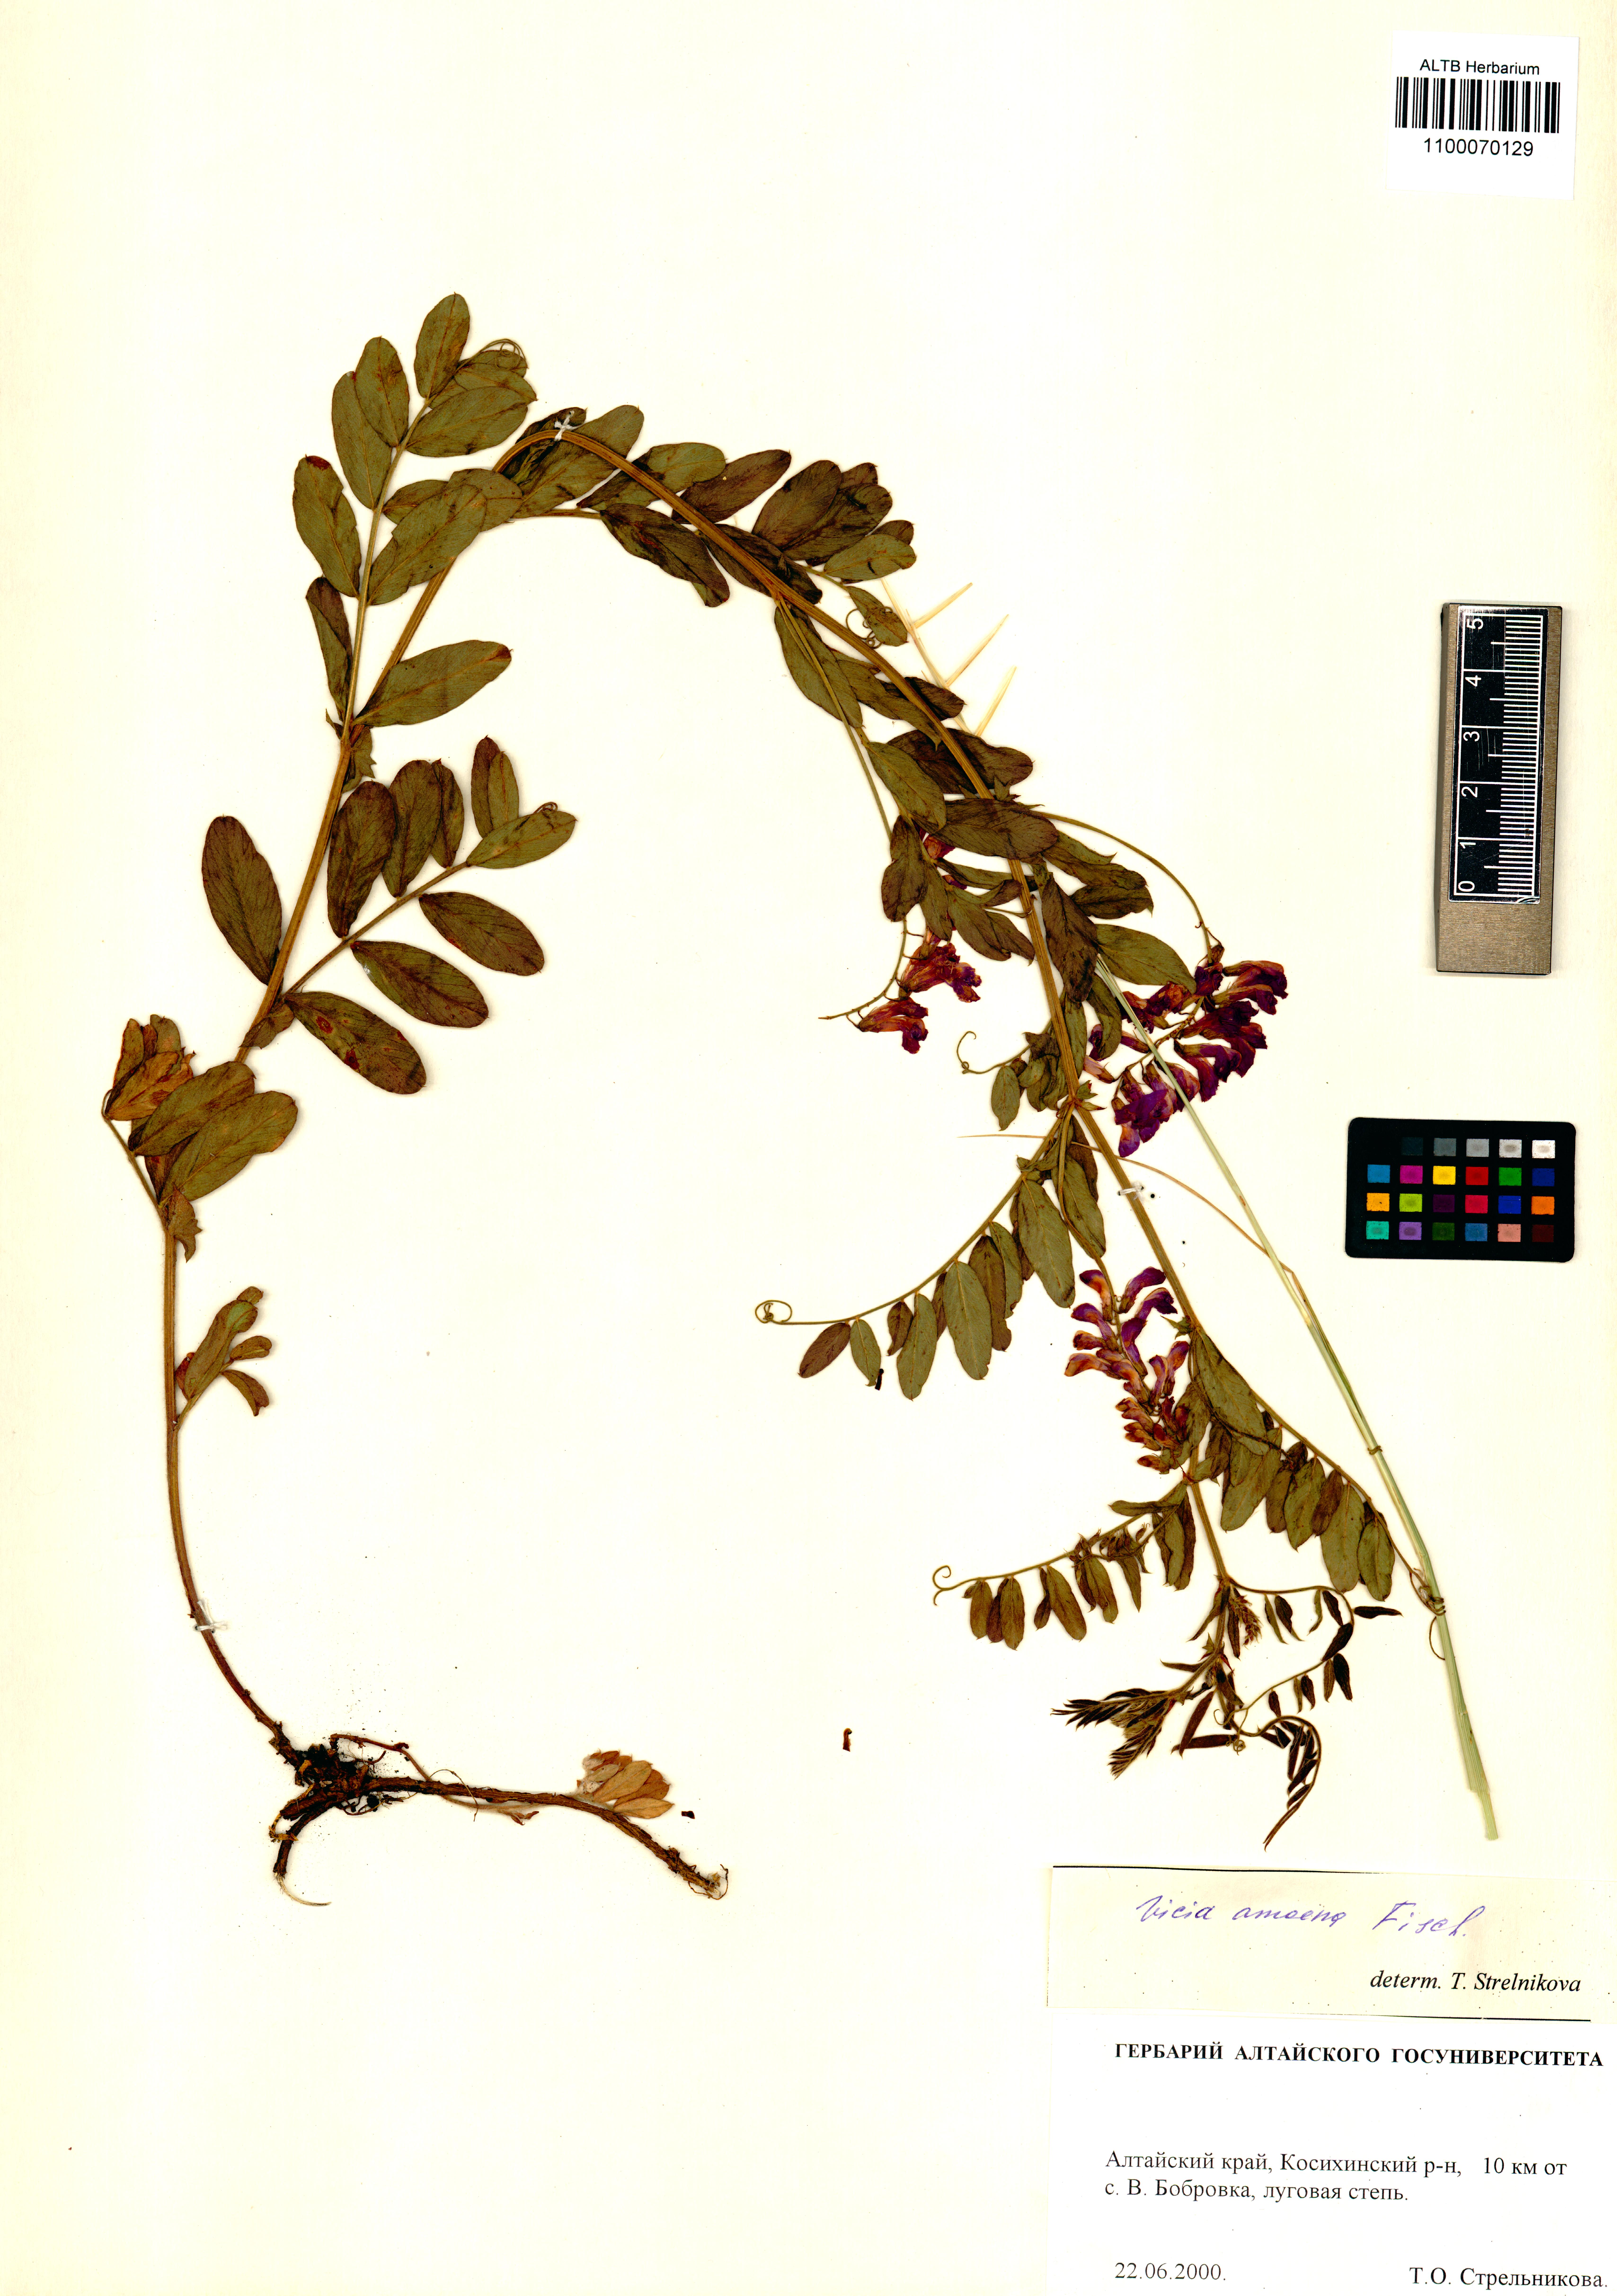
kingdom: Plantae
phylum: Tracheophyta
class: Magnoliopsida
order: Fabales
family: Fabaceae
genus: Vicia
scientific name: Vicia amoena
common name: Cheder ebs
